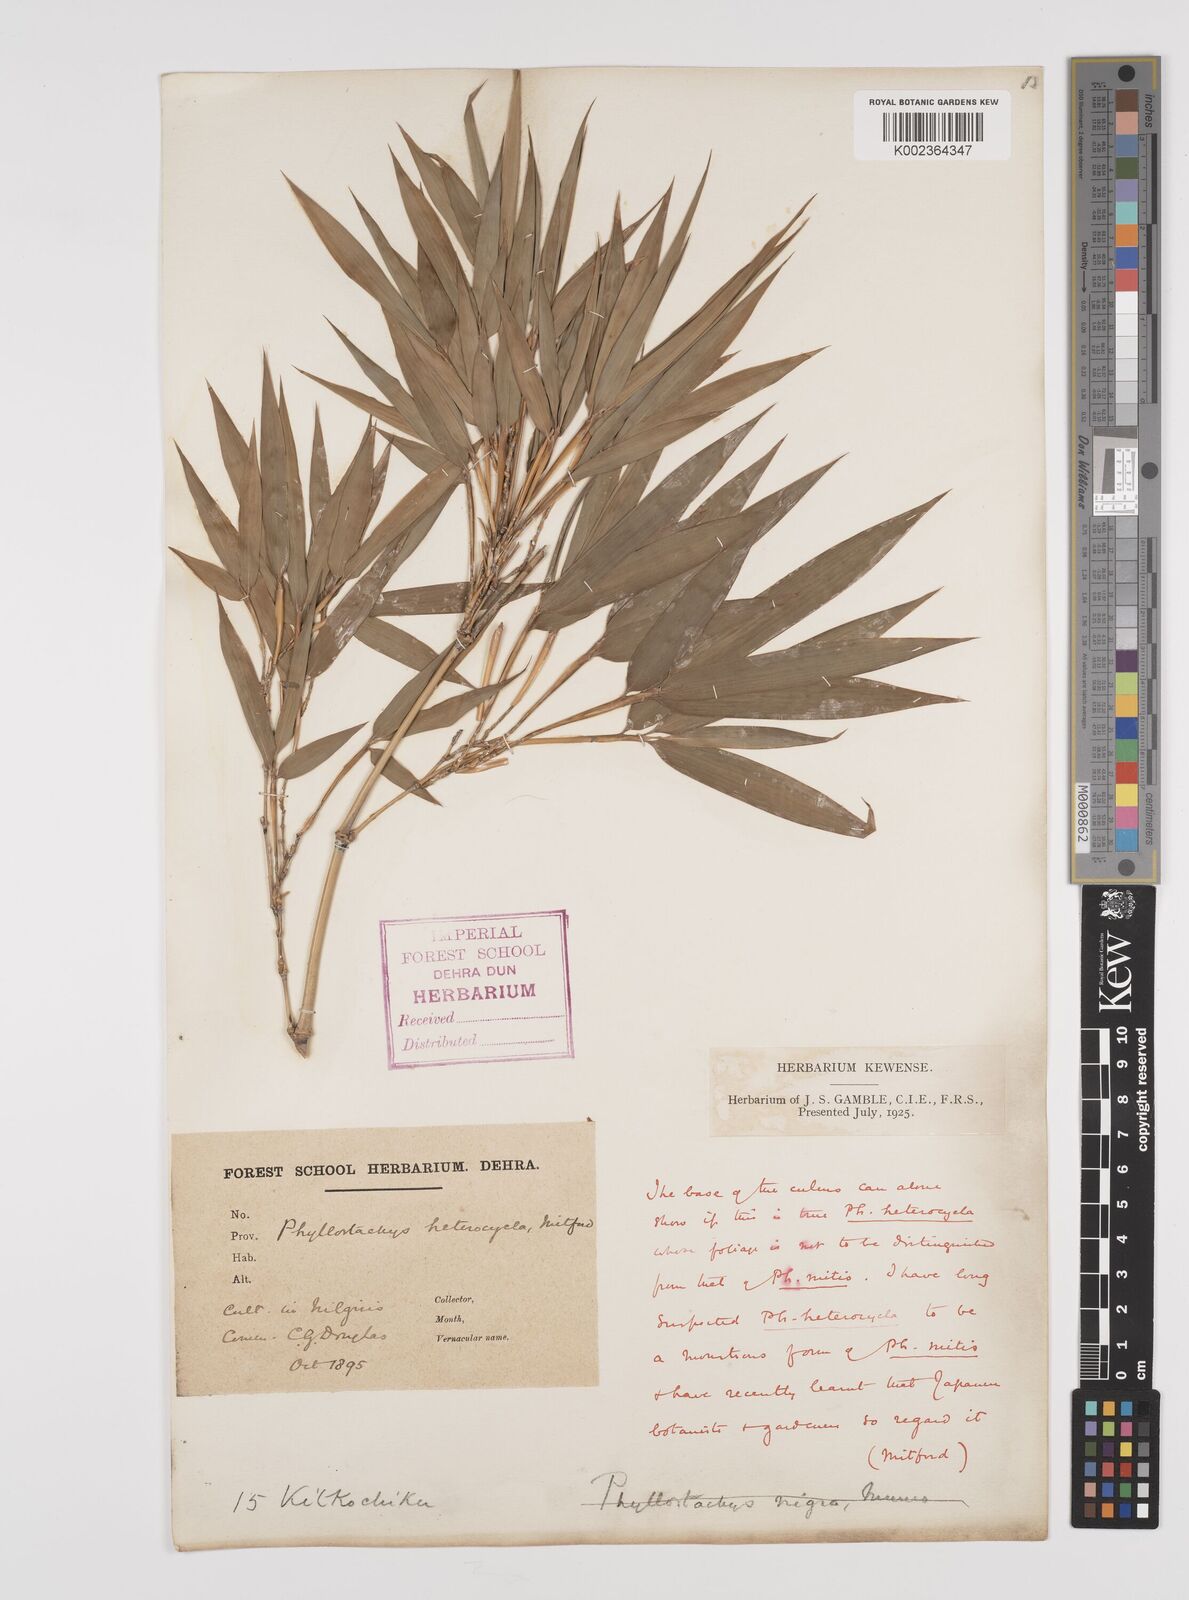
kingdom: Plantae
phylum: Tracheophyta
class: Liliopsida
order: Poales
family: Poaceae
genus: Phyllostachys
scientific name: Phyllostachys edulis
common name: Tortoise shell bamboo
